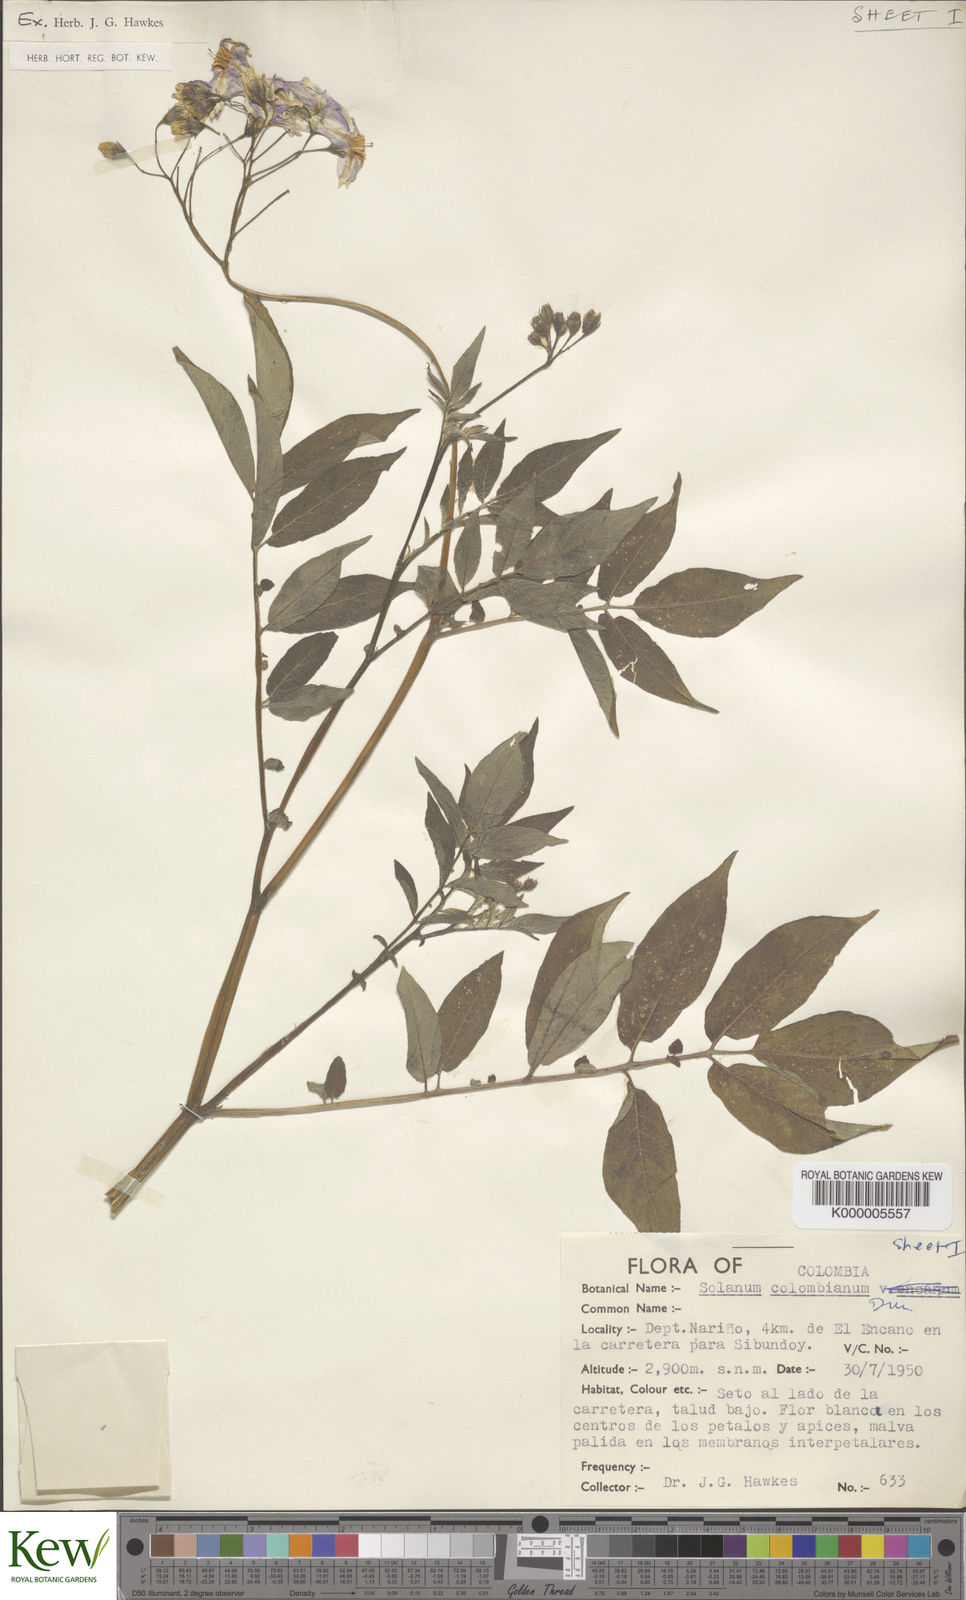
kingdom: Plantae
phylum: Tracheophyta
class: Magnoliopsida
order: Solanales
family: Solanaceae
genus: Solanum
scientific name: Solanum colombianum
